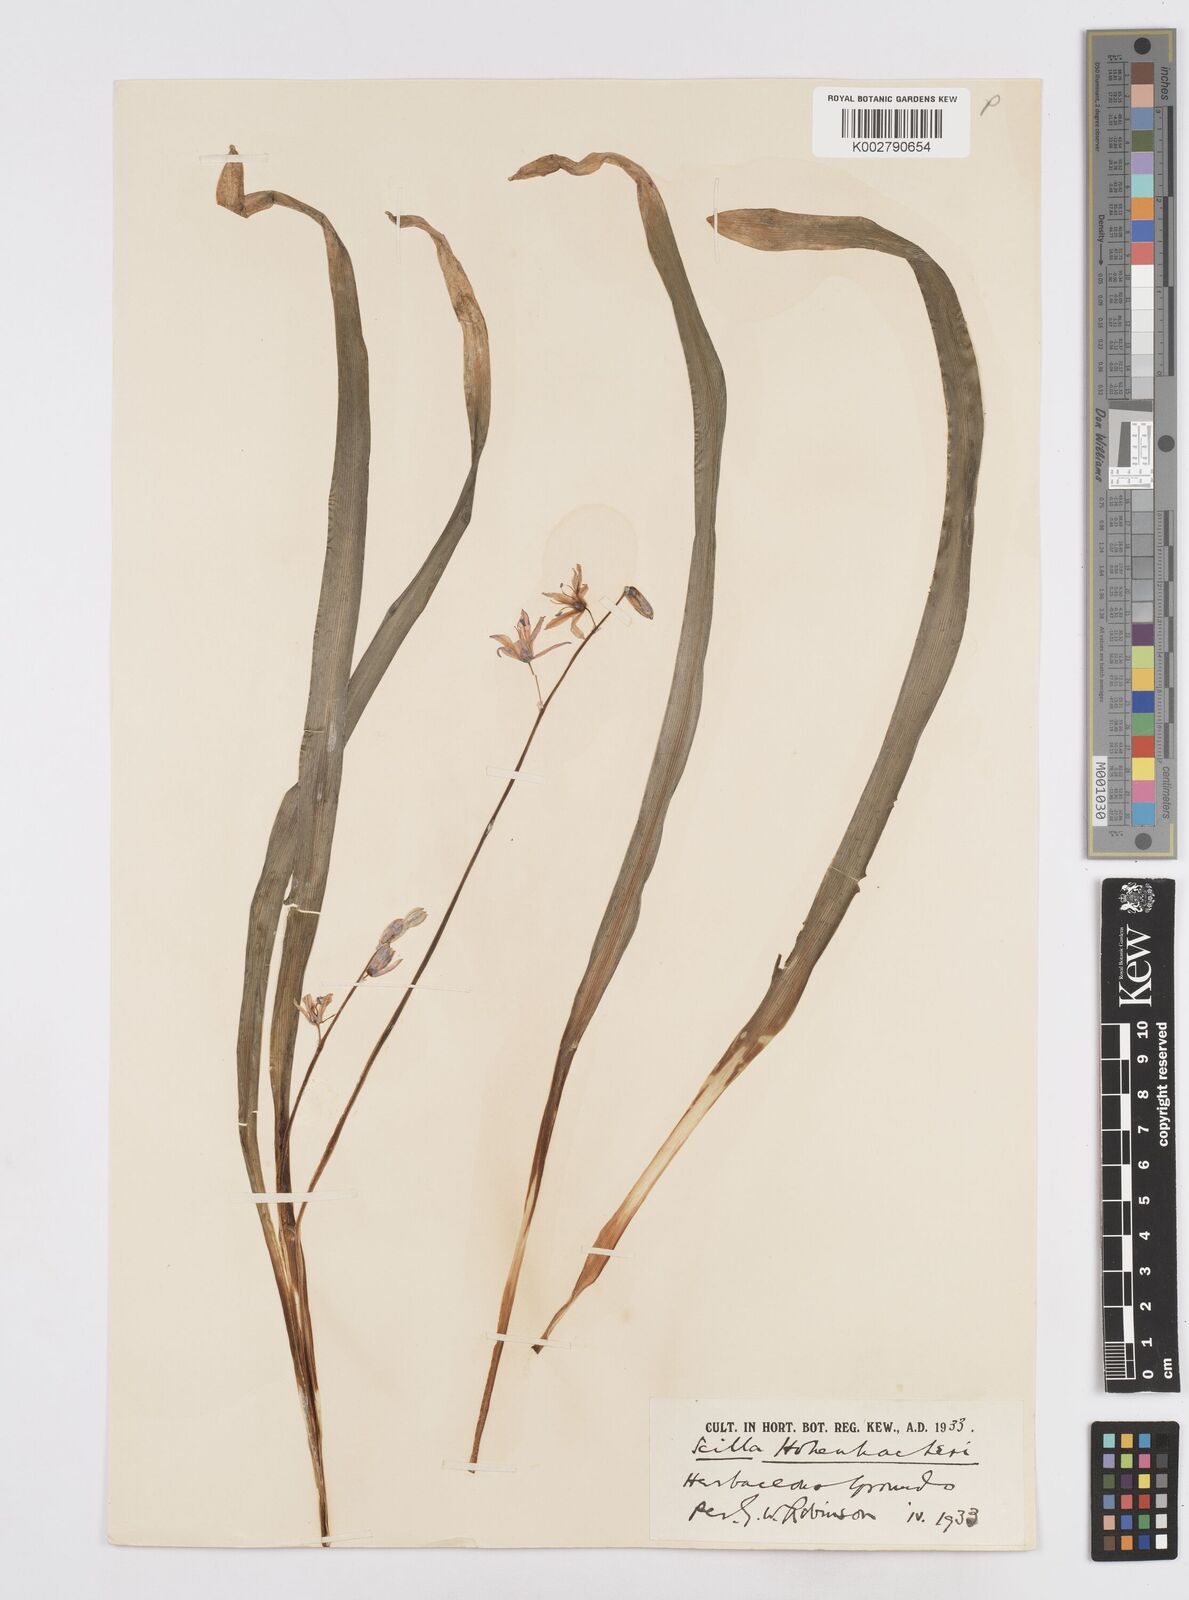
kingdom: Plantae
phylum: Tracheophyta
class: Liliopsida
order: Asparagales
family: Asparagaceae
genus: Scilla
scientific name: Scilla cilicica
